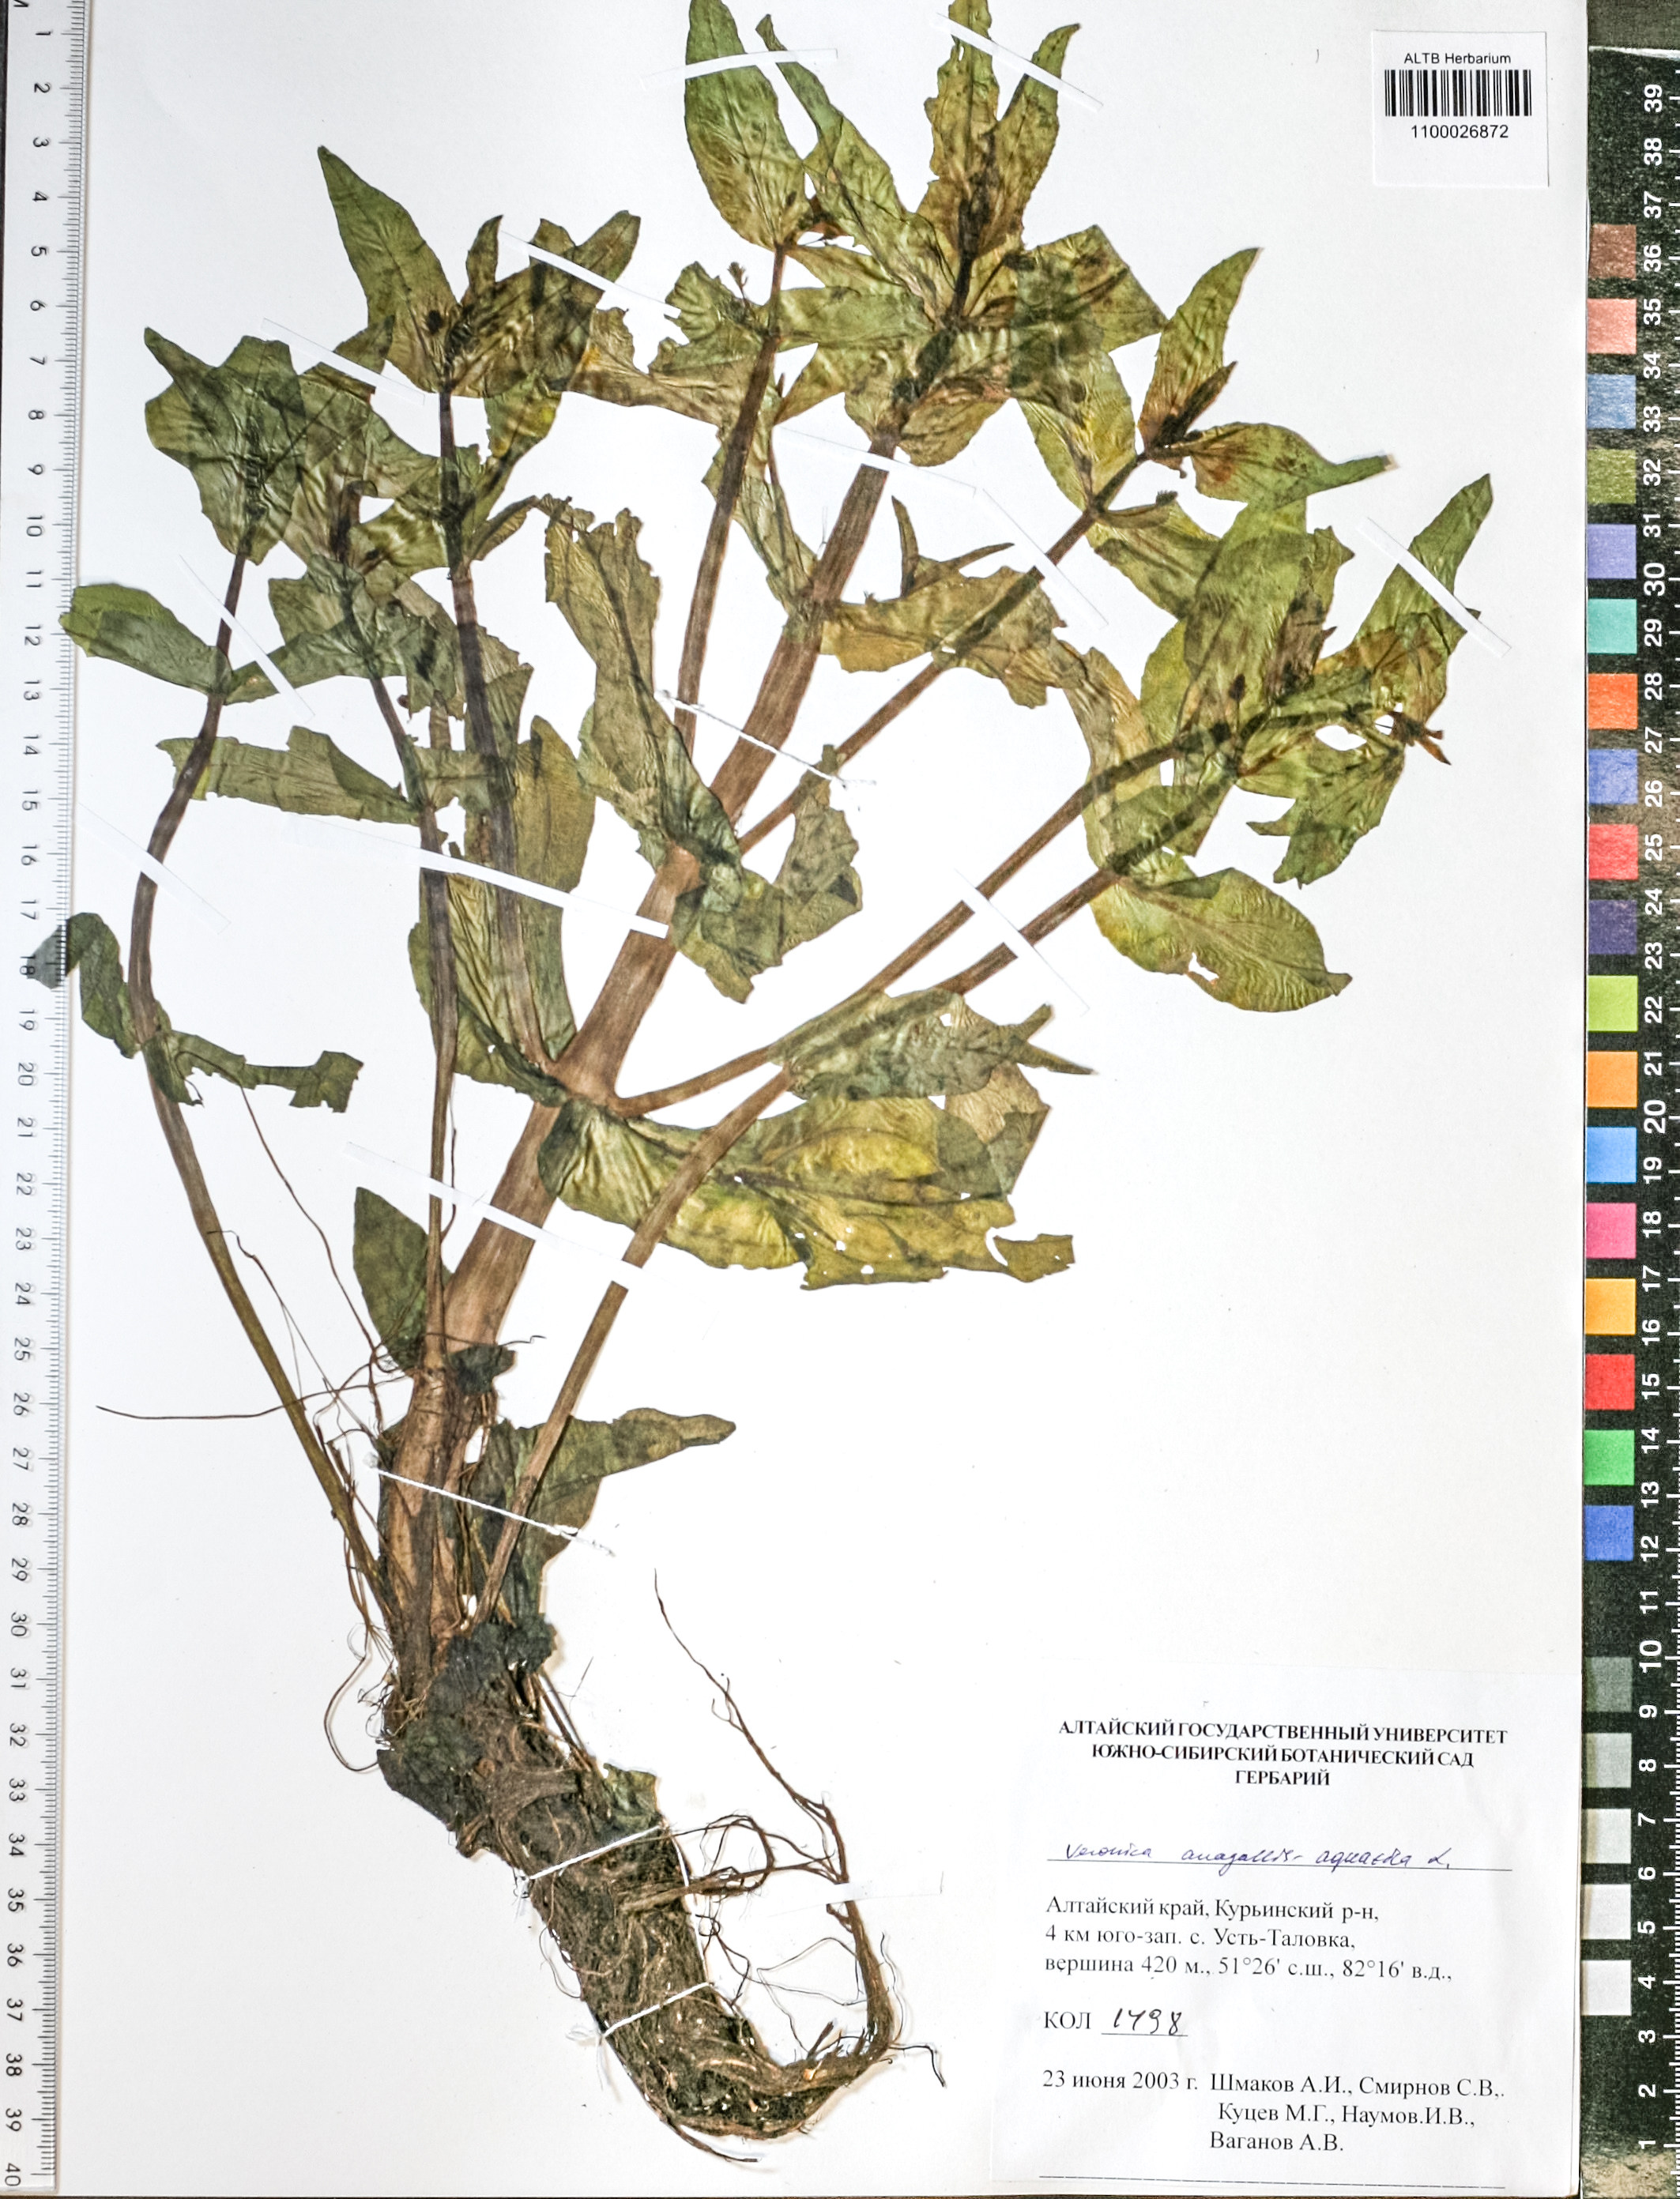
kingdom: Plantae
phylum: Tracheophyta
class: Magnoliopsida
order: Lamiales
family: Plantaginaceae
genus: Veronica
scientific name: Veronica anagallis-aquatica
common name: Water speedwell
